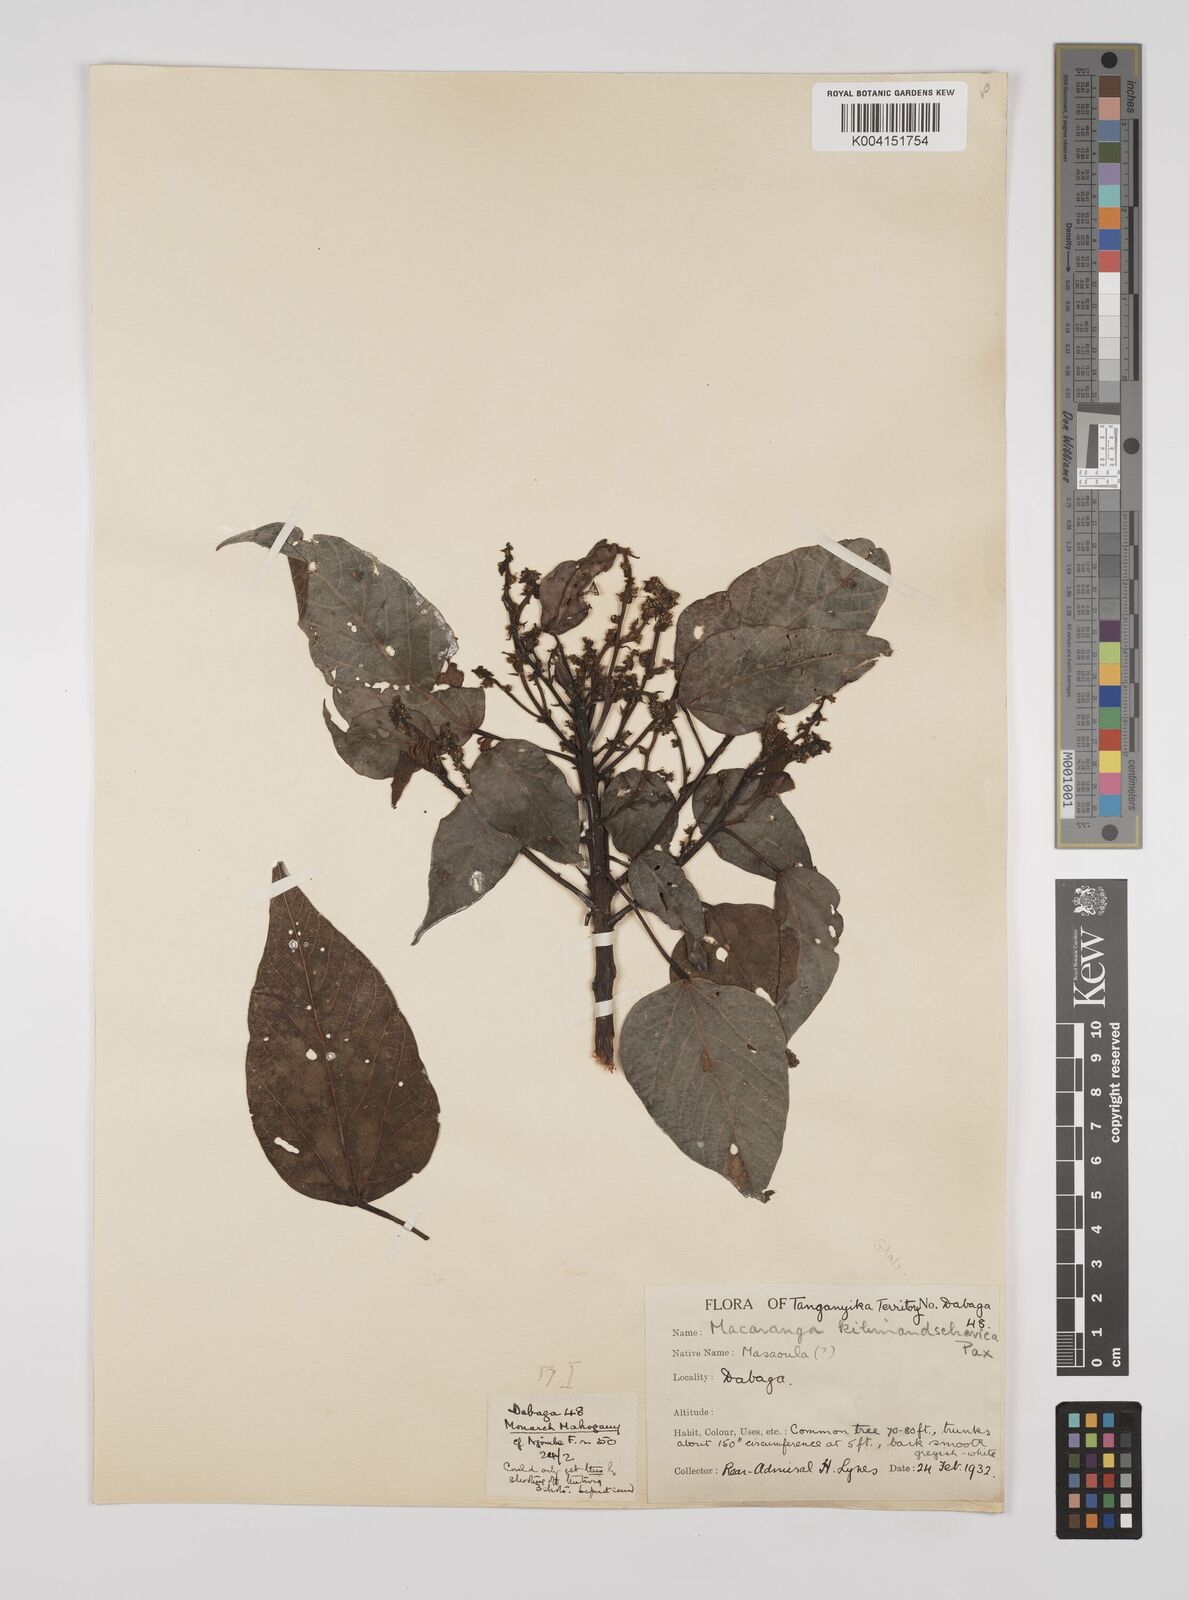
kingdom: Plantae
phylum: Tracheophyta
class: Magnoliopsida
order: Malpighiales
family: Euphorbiaceae
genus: Macaranga
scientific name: Macaranga kilimandscharica
